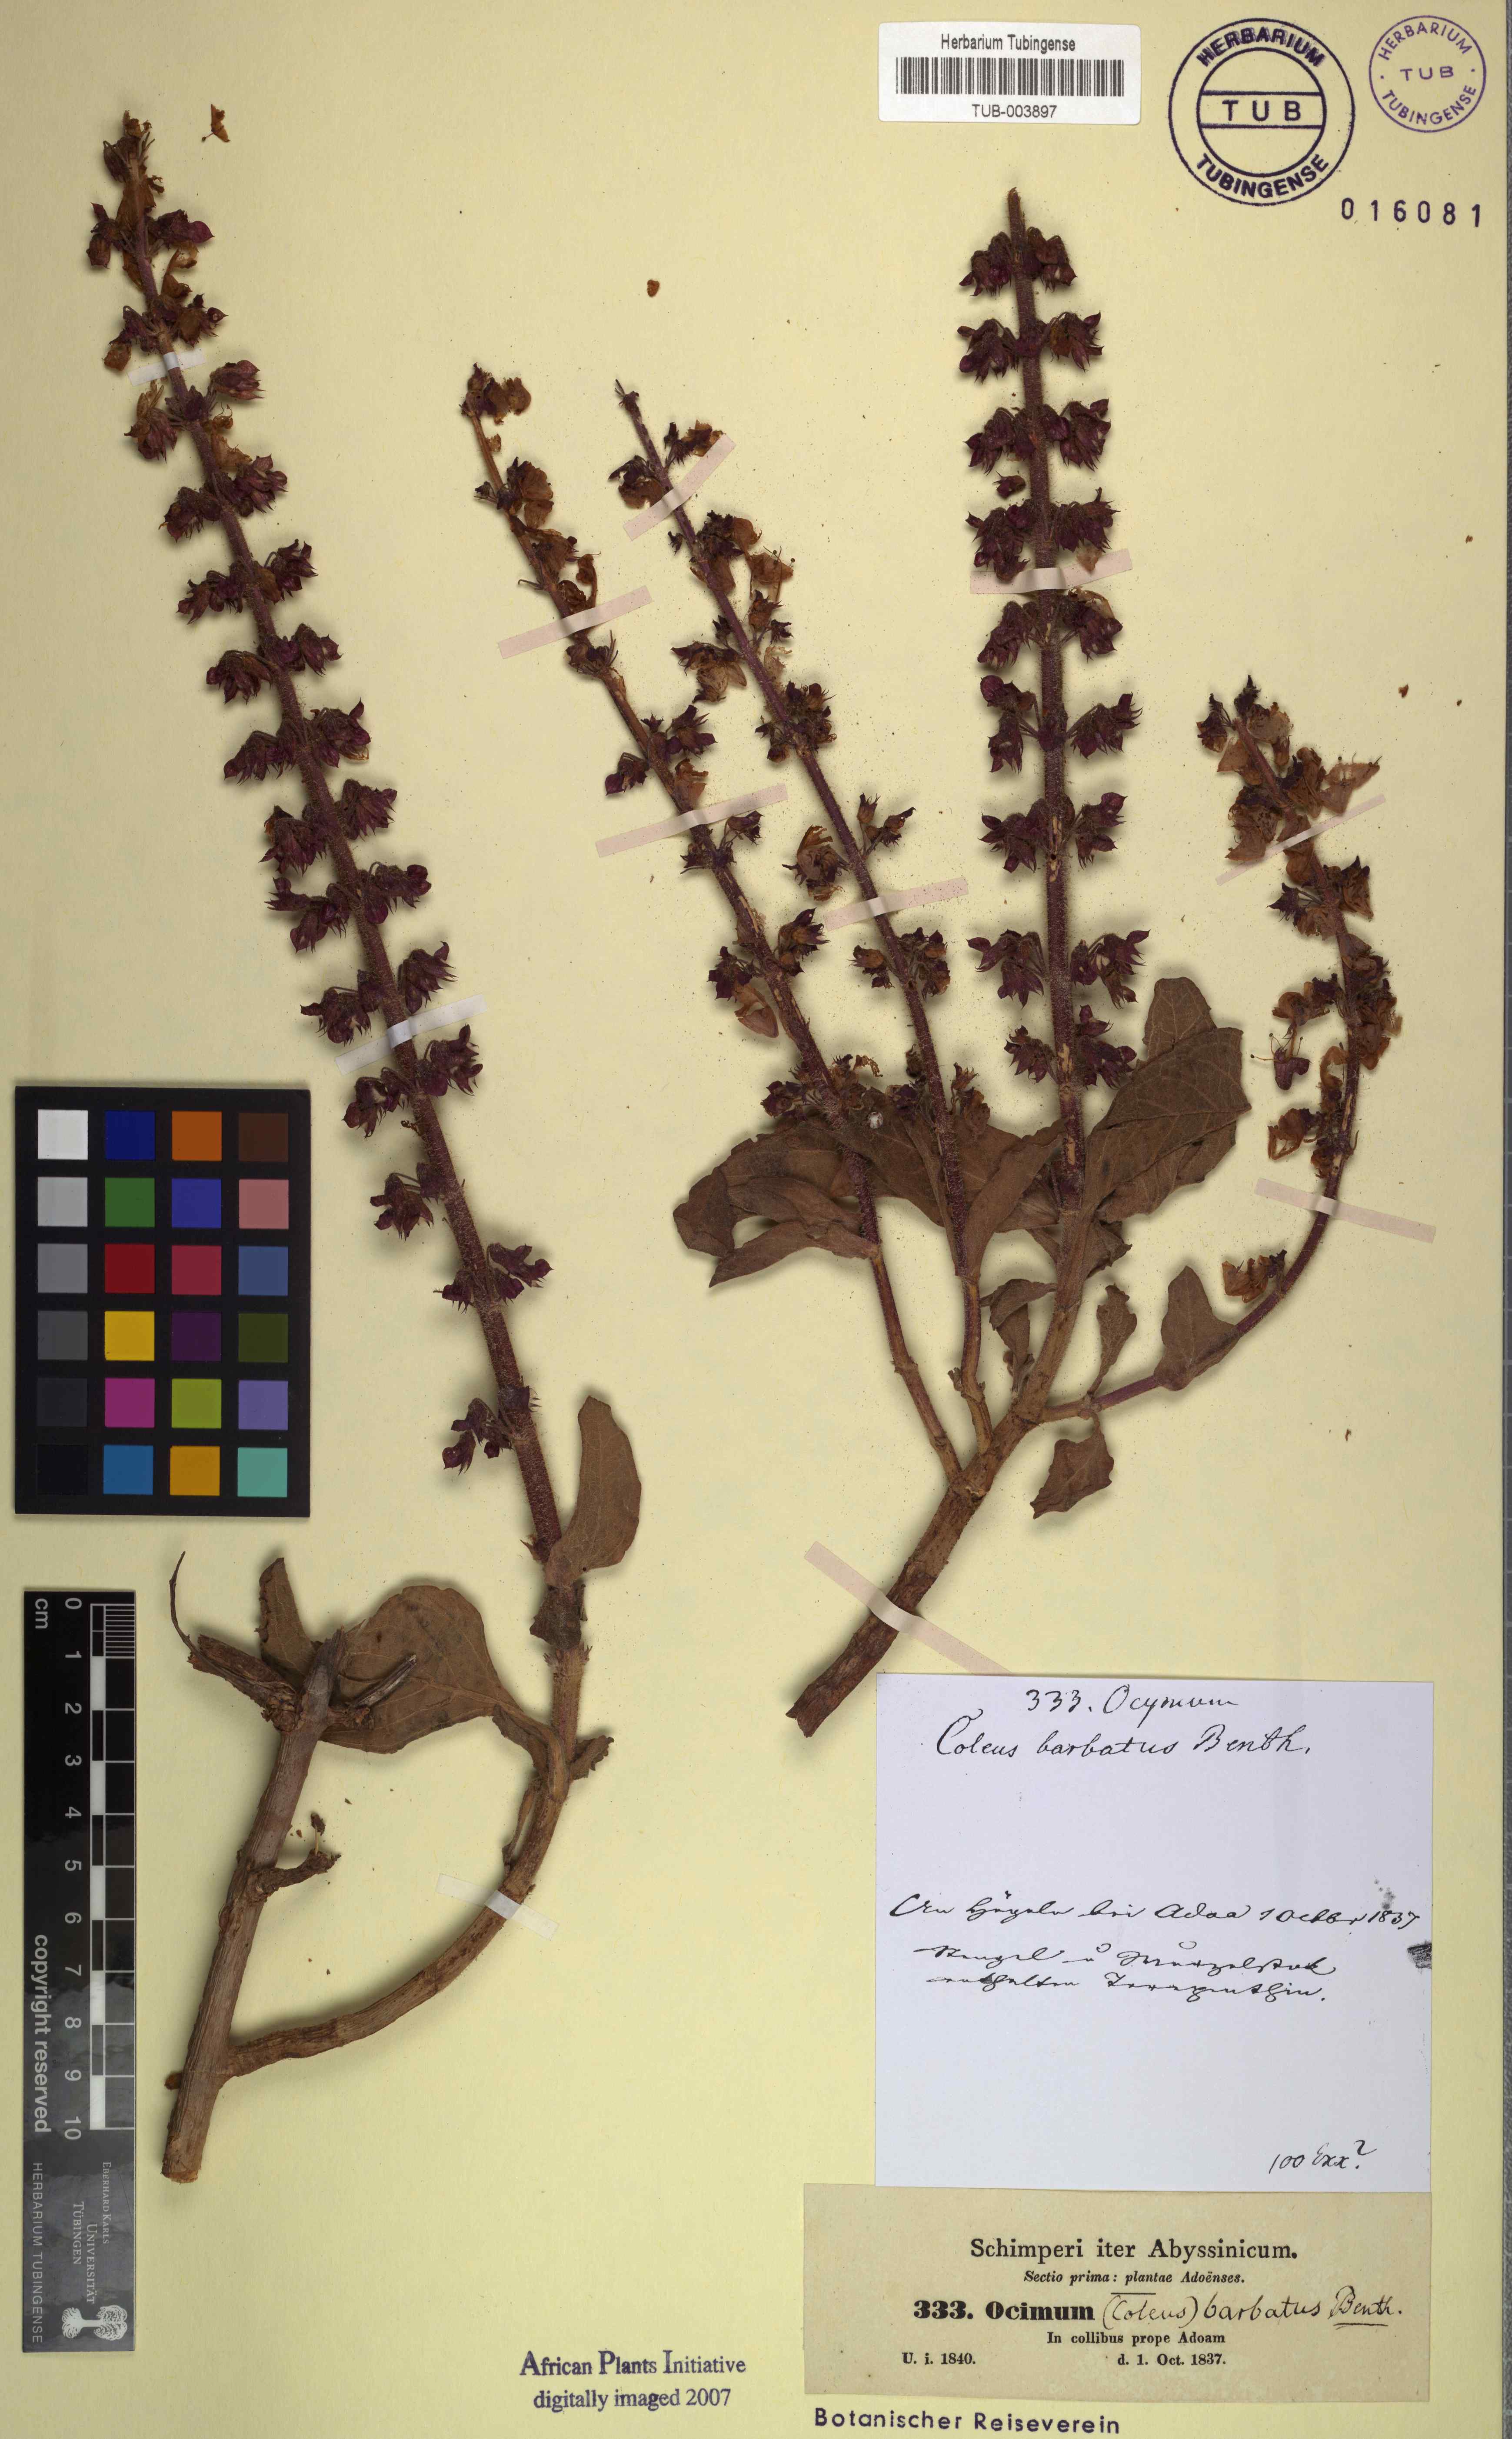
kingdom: Plantae
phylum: Tracheophyta
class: Magnoliopsida
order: Lamiales
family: Lamiaceae
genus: Coleus
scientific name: Coleus barbatus
